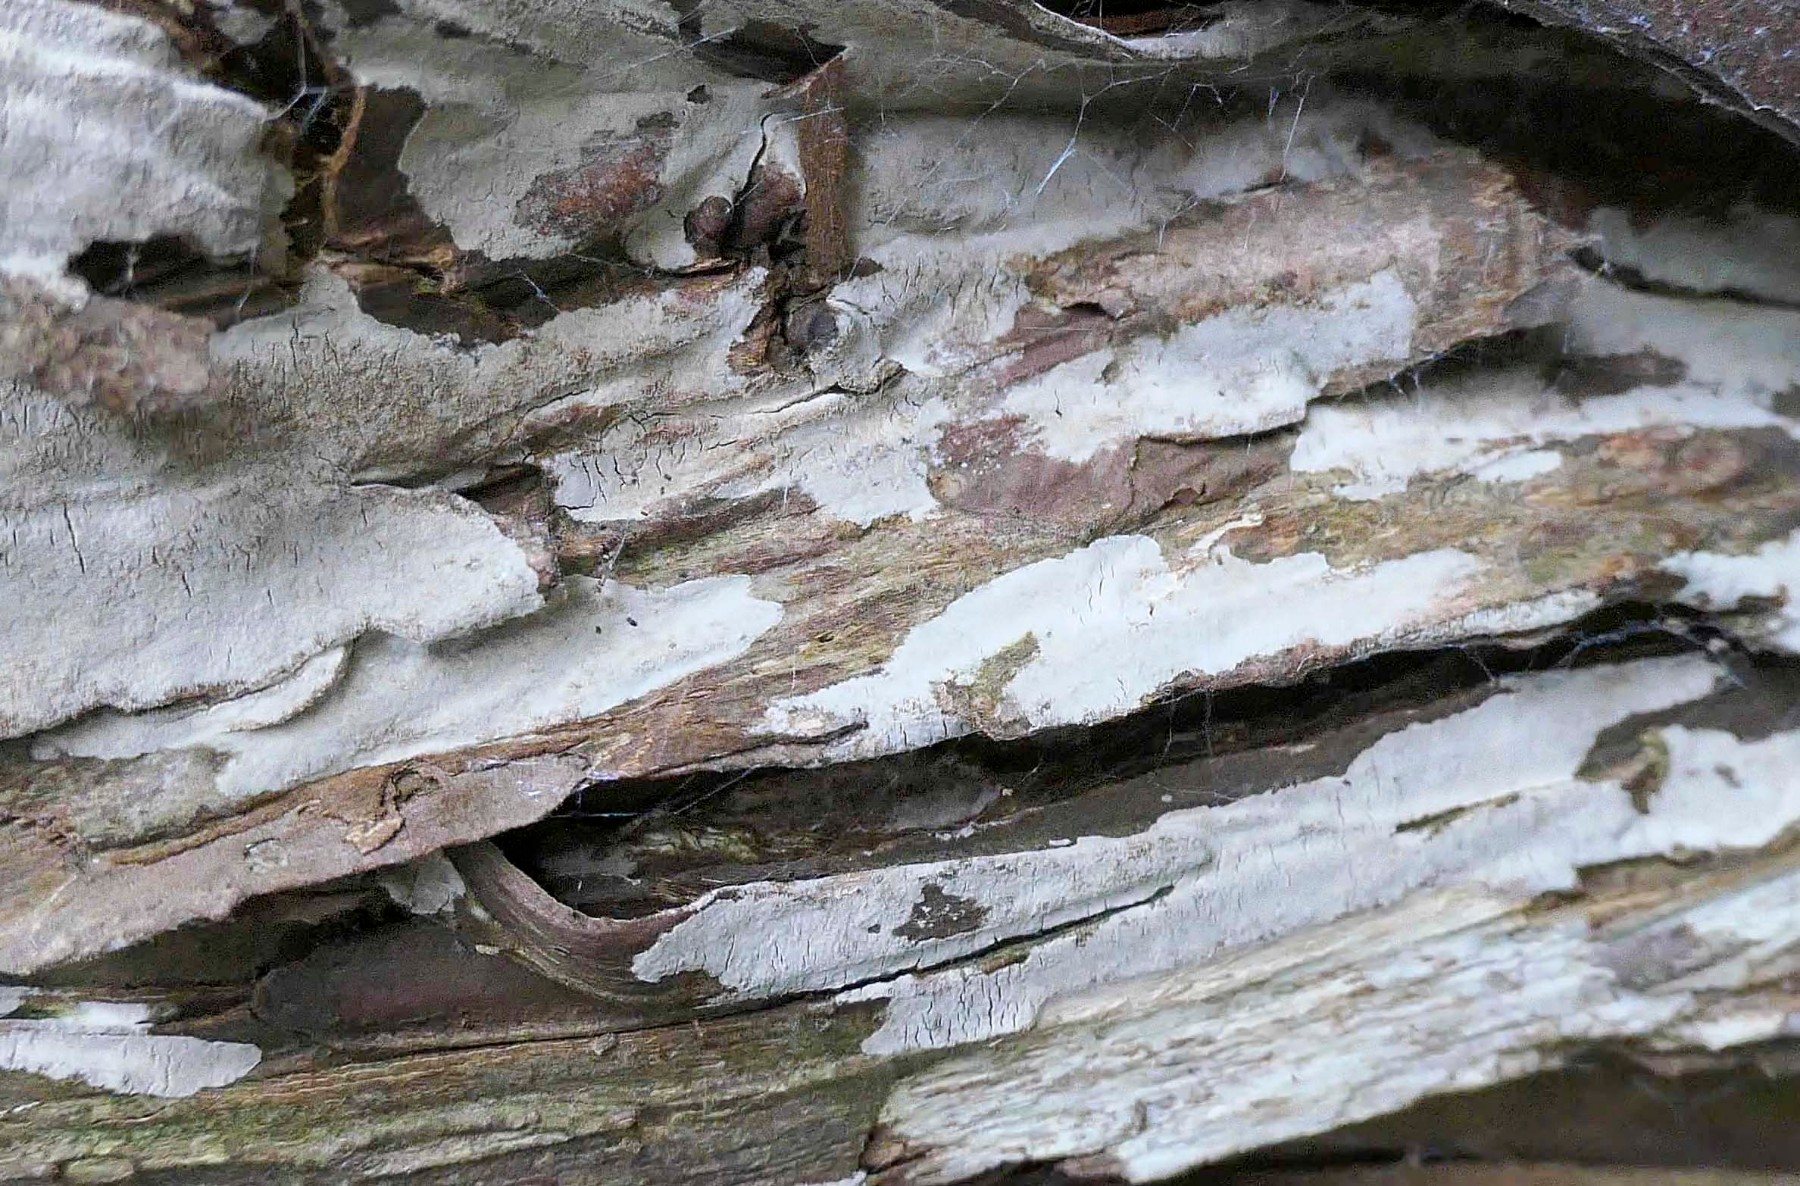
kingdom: Fungi
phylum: Basidiomycota
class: Agaricomycetes
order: Russulales
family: Echinodontiaceae
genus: Amylostereum
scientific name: Amylostereum laevigatum
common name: ene-lædersvamp
